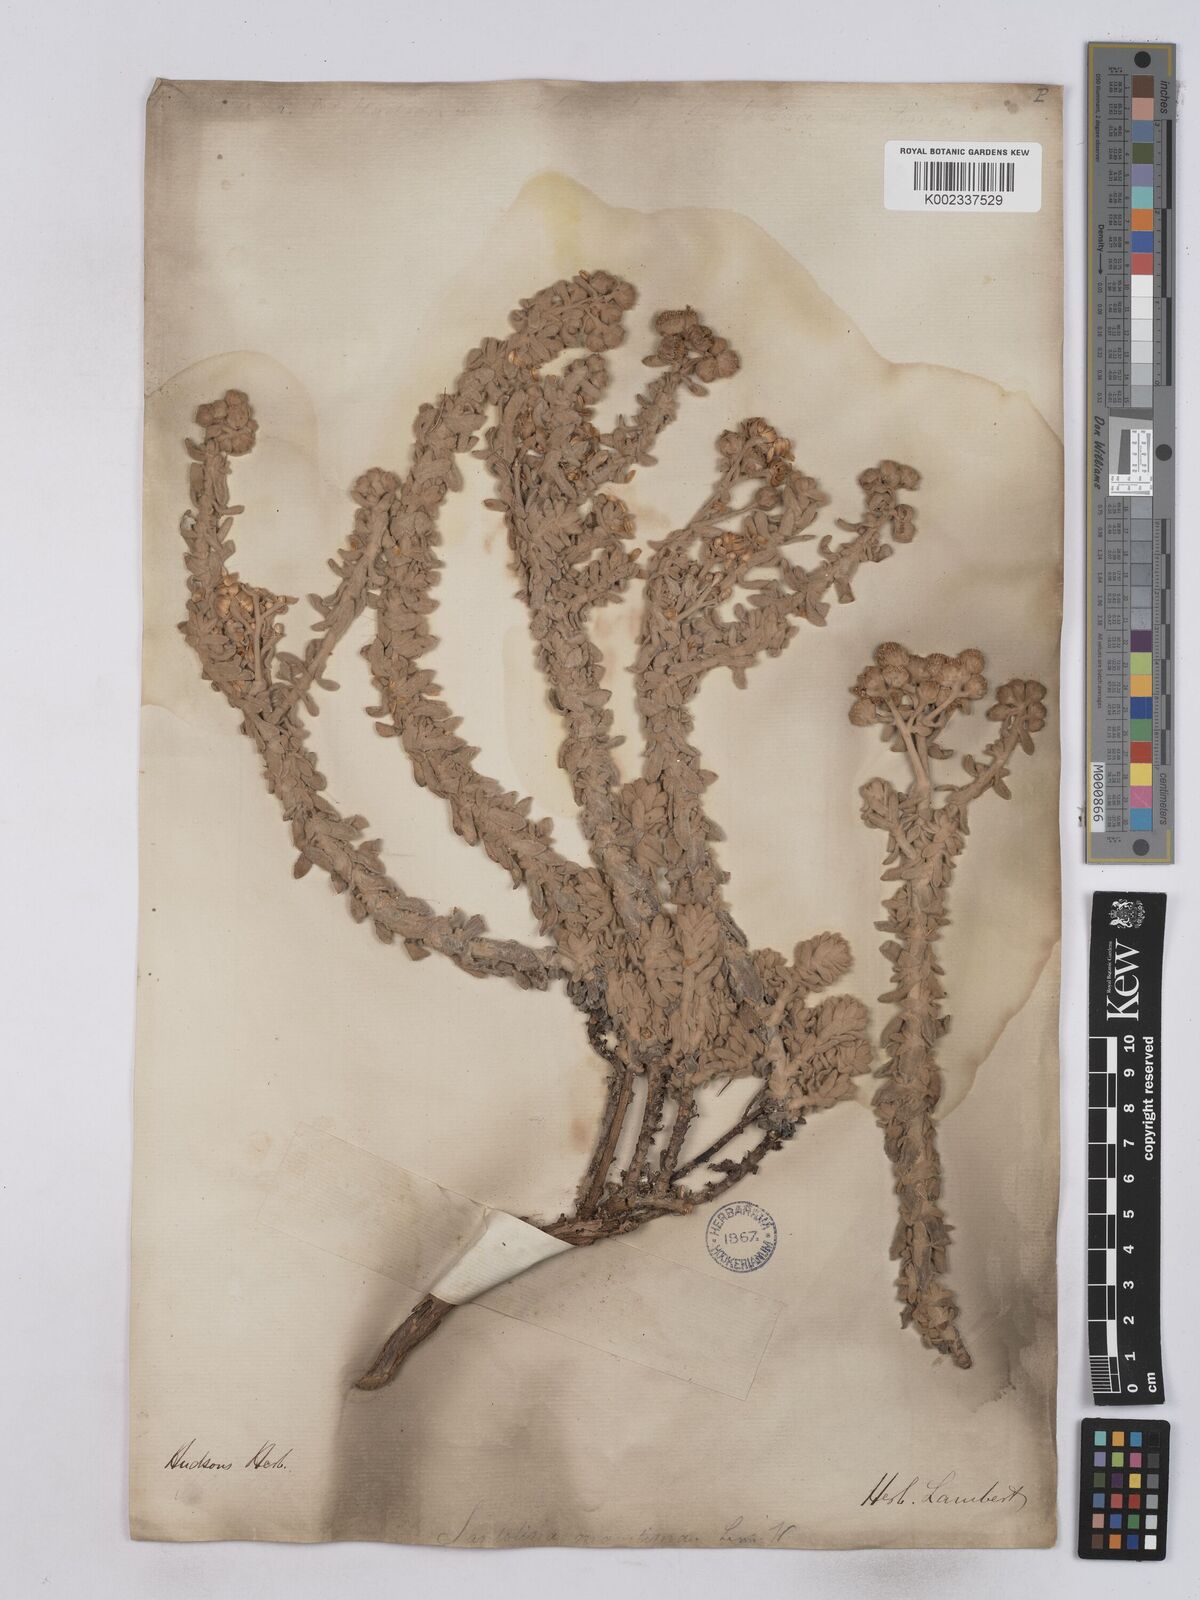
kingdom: Plantae
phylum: Tracheophyta
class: Magnoliopsida
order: Asterales
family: Asteraceae
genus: Achillea
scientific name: Achillea maritima
